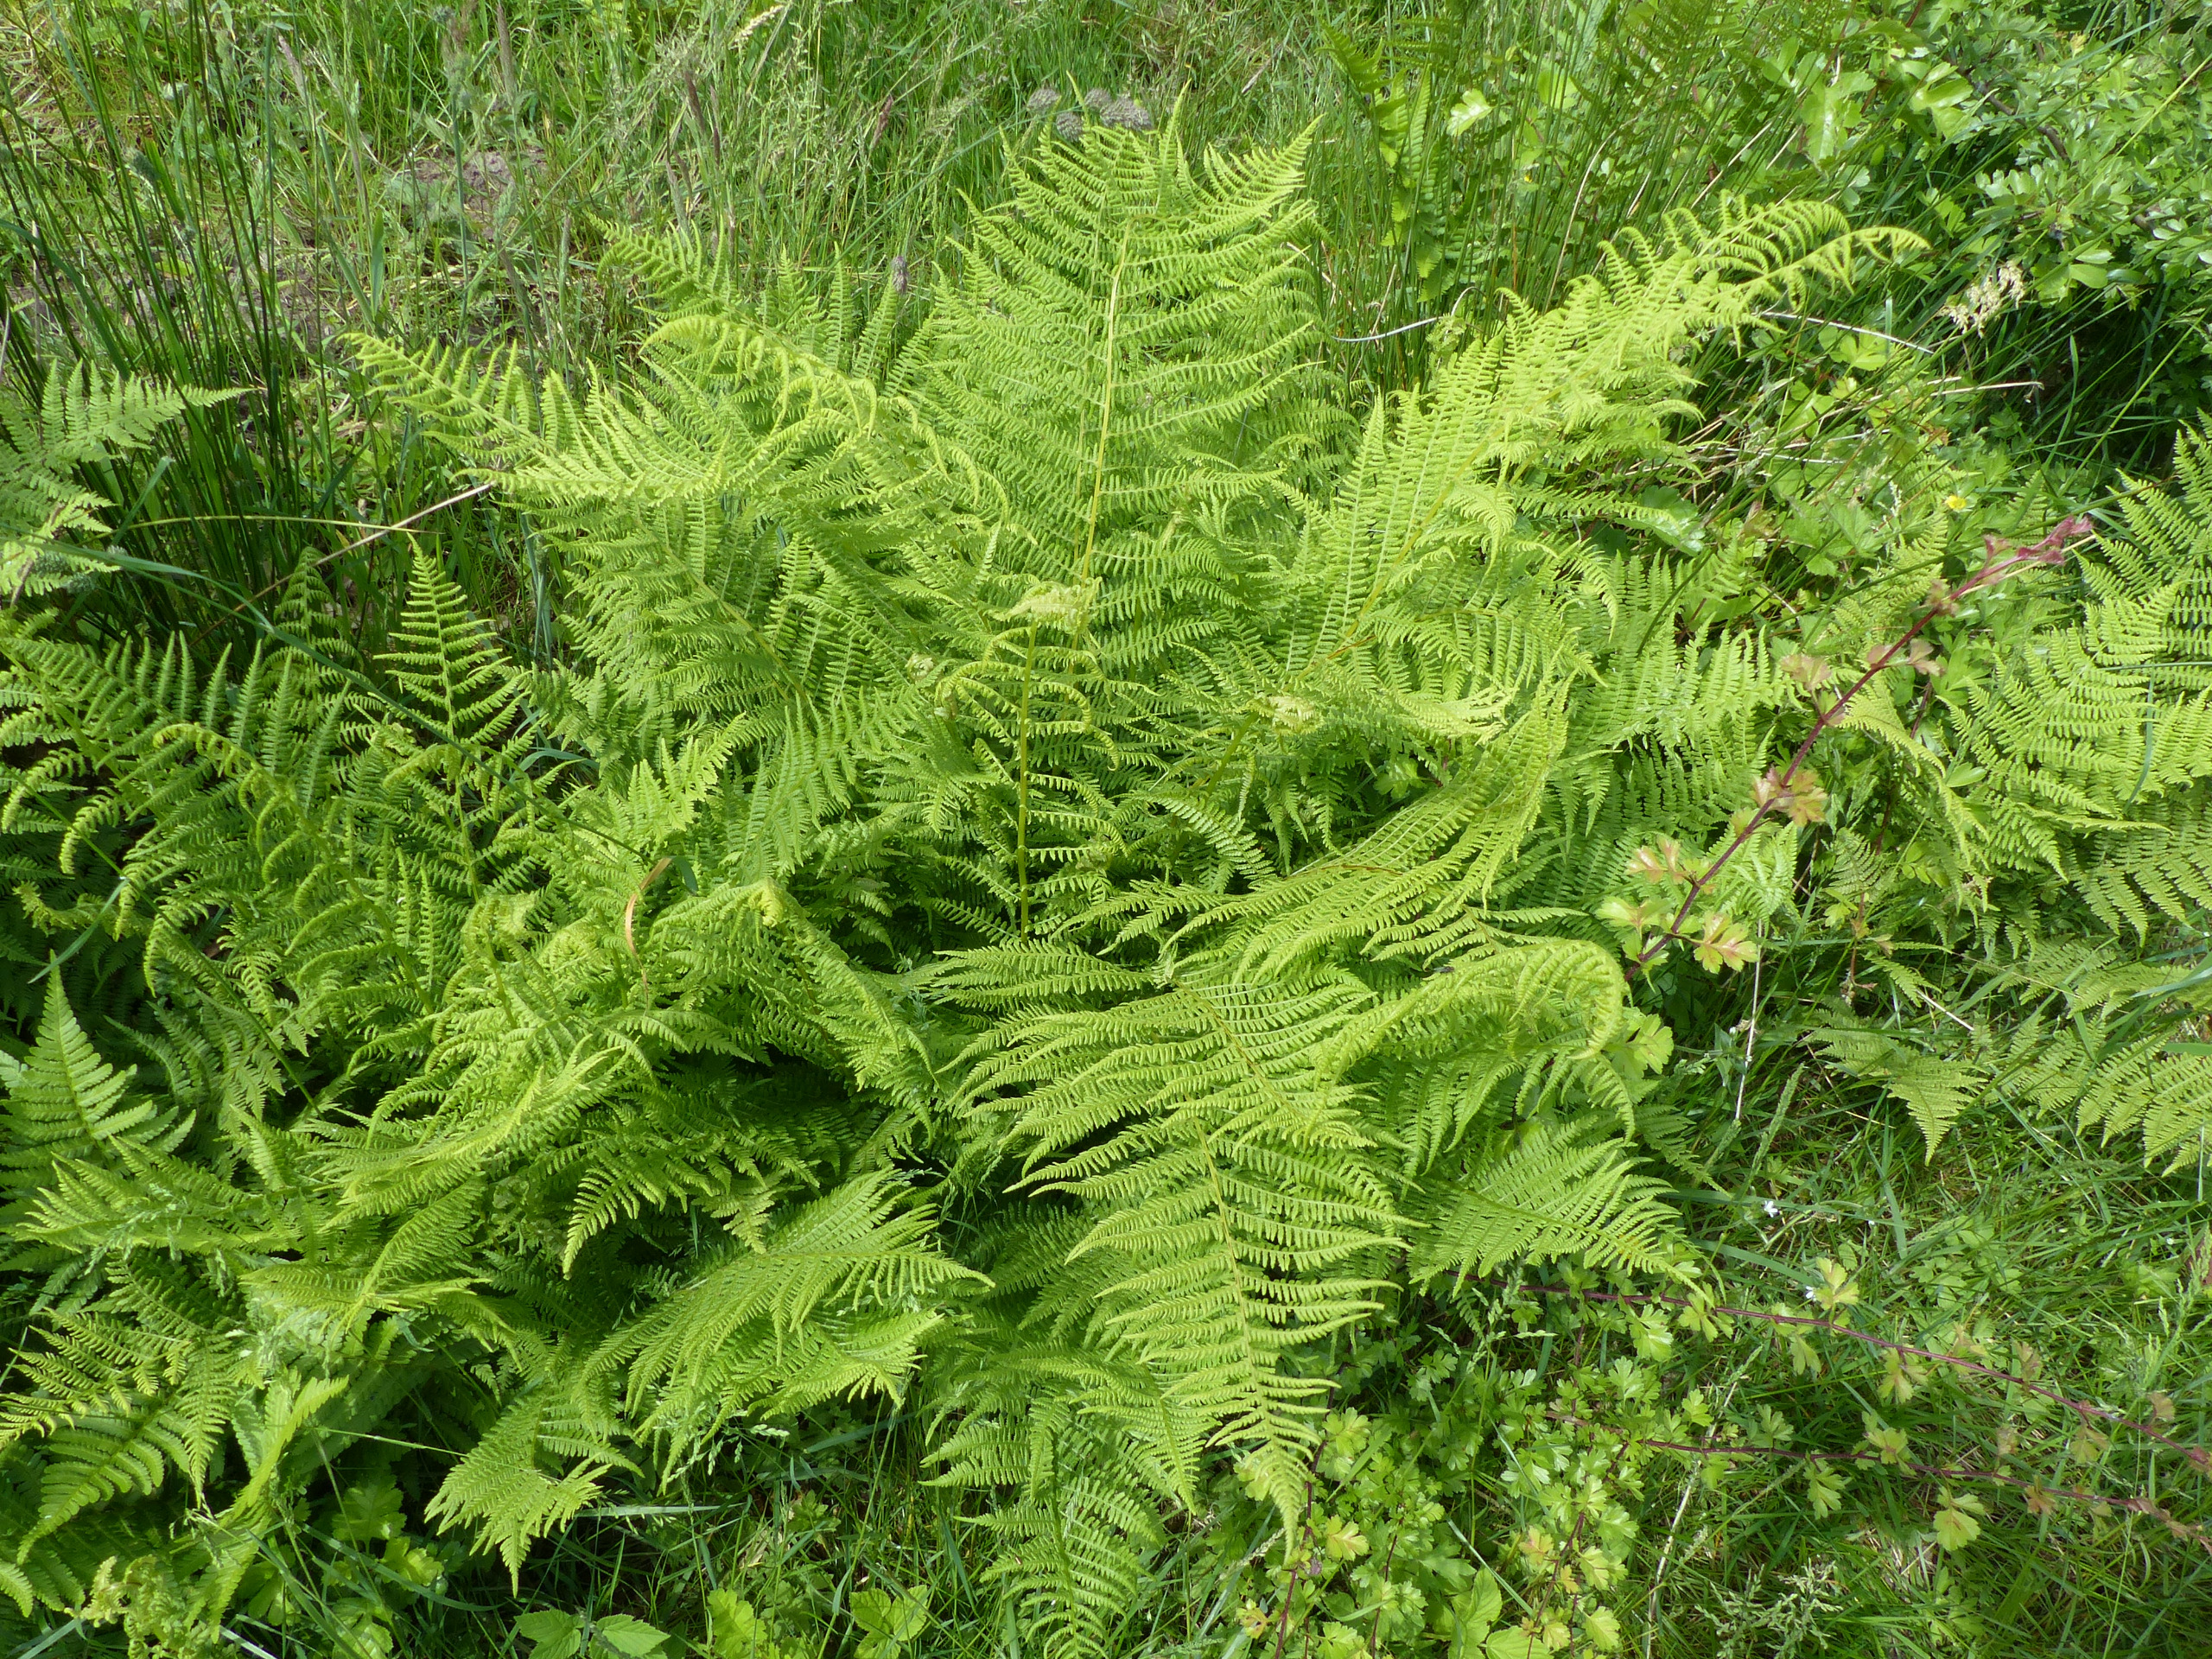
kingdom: Plantae
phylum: Tracheophyta
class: Polypodiopsida
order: Polypodiales
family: Athyriaceae
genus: Athyrium
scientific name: Athyrium filix-femina
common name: Fjerbregne
